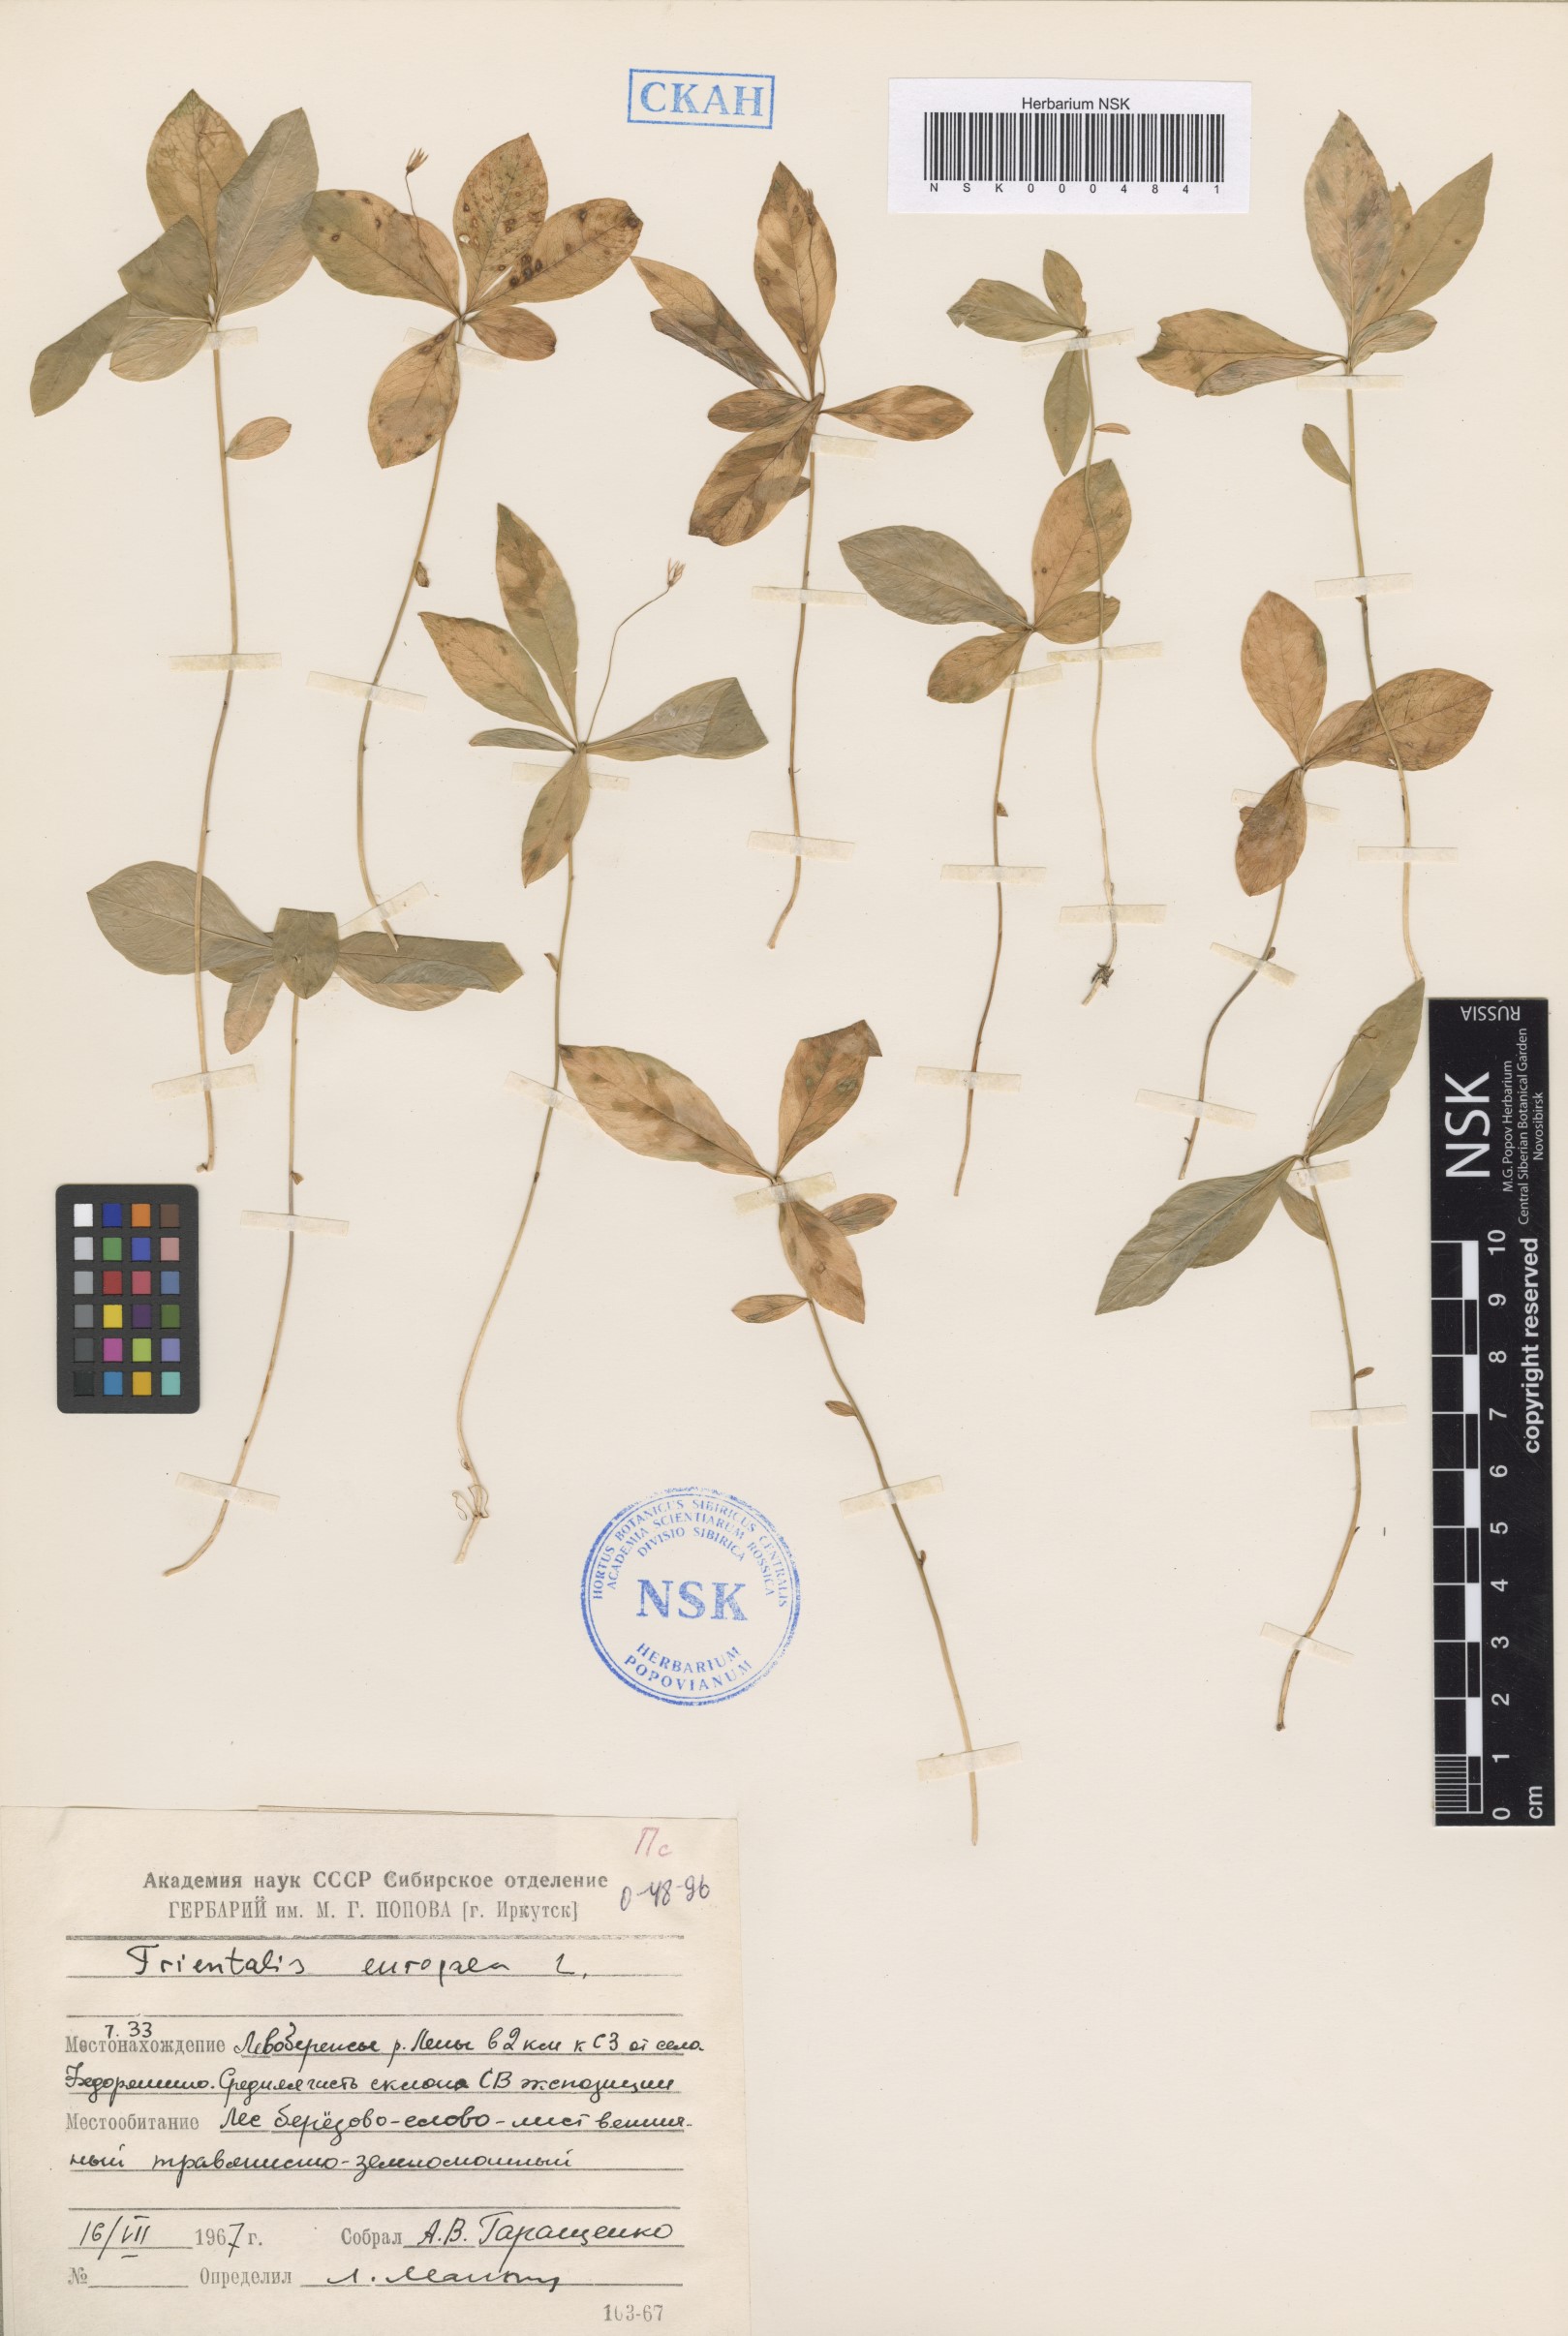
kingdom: Plantae
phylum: Tracheophyta
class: Magnoliopsida
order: Ericales
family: Primulaceae
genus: Lysimachia
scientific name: Lysimachia europaea
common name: Arctic starflower
